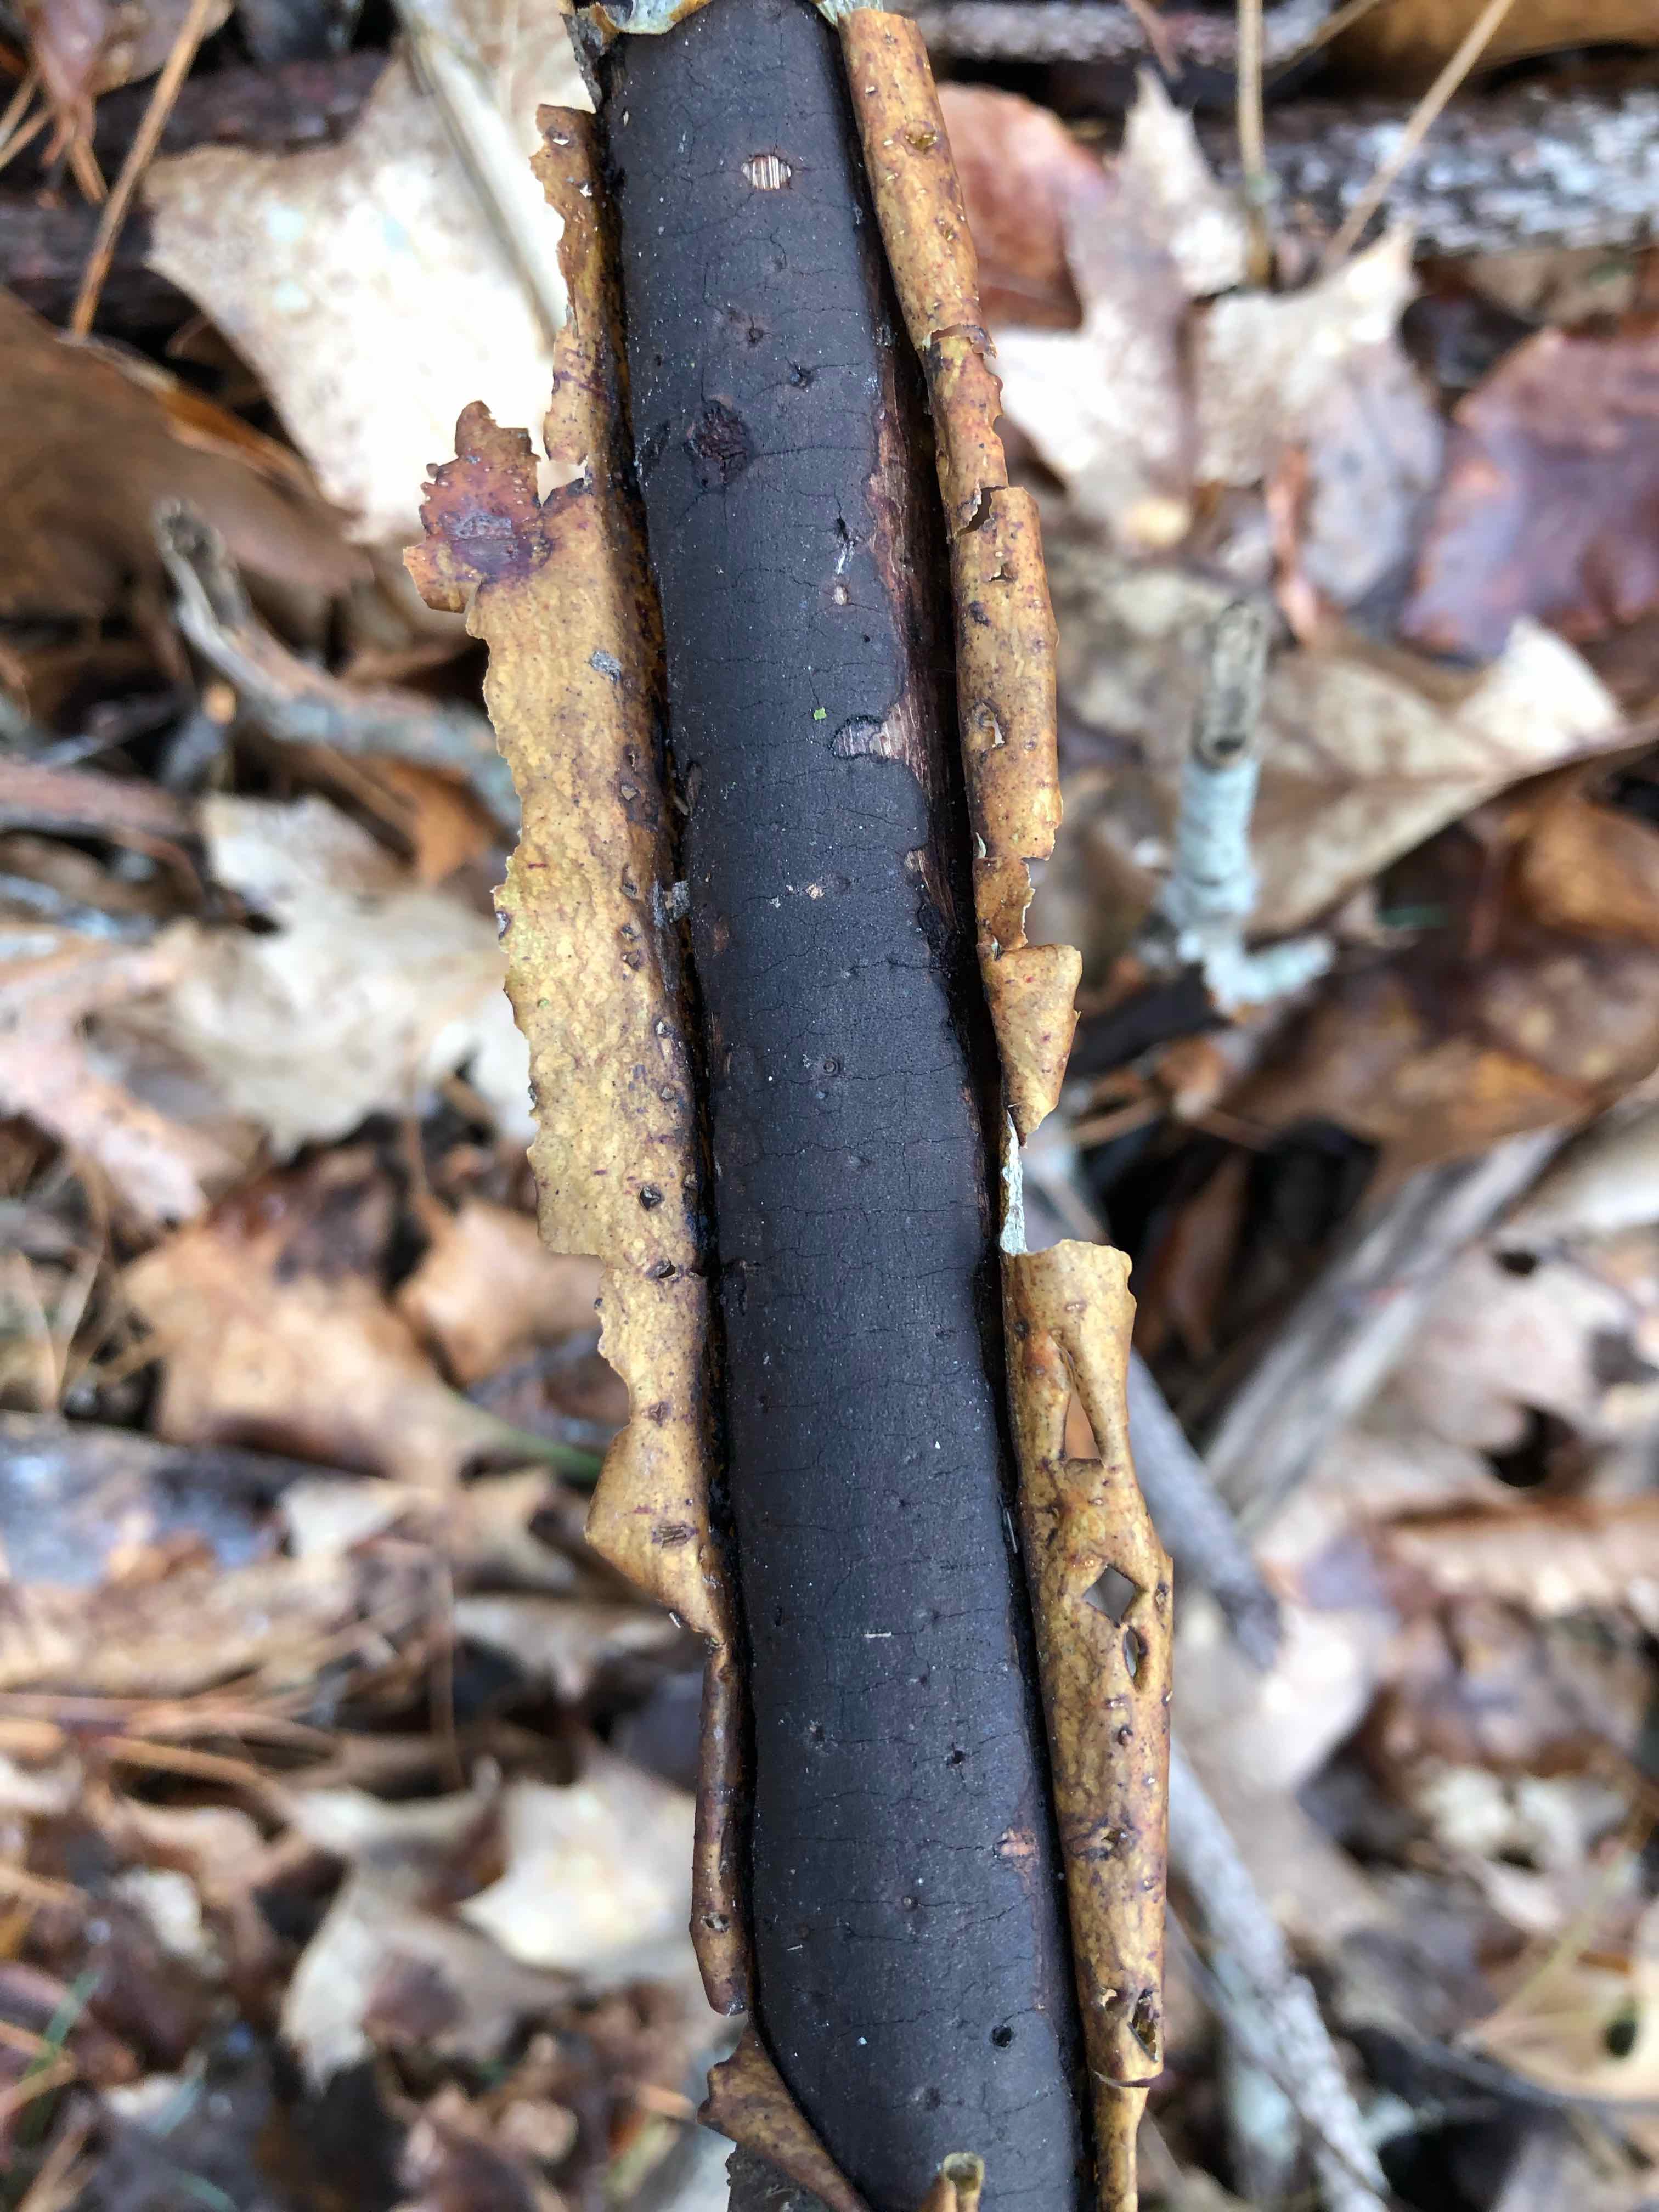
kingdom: Fungi
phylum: Ascomycota
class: Sordariomycetes
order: Xylariales
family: Diatrypaceae
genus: Diatrype
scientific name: Diatrype decorticata
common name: barksprænger-kulskorpe
